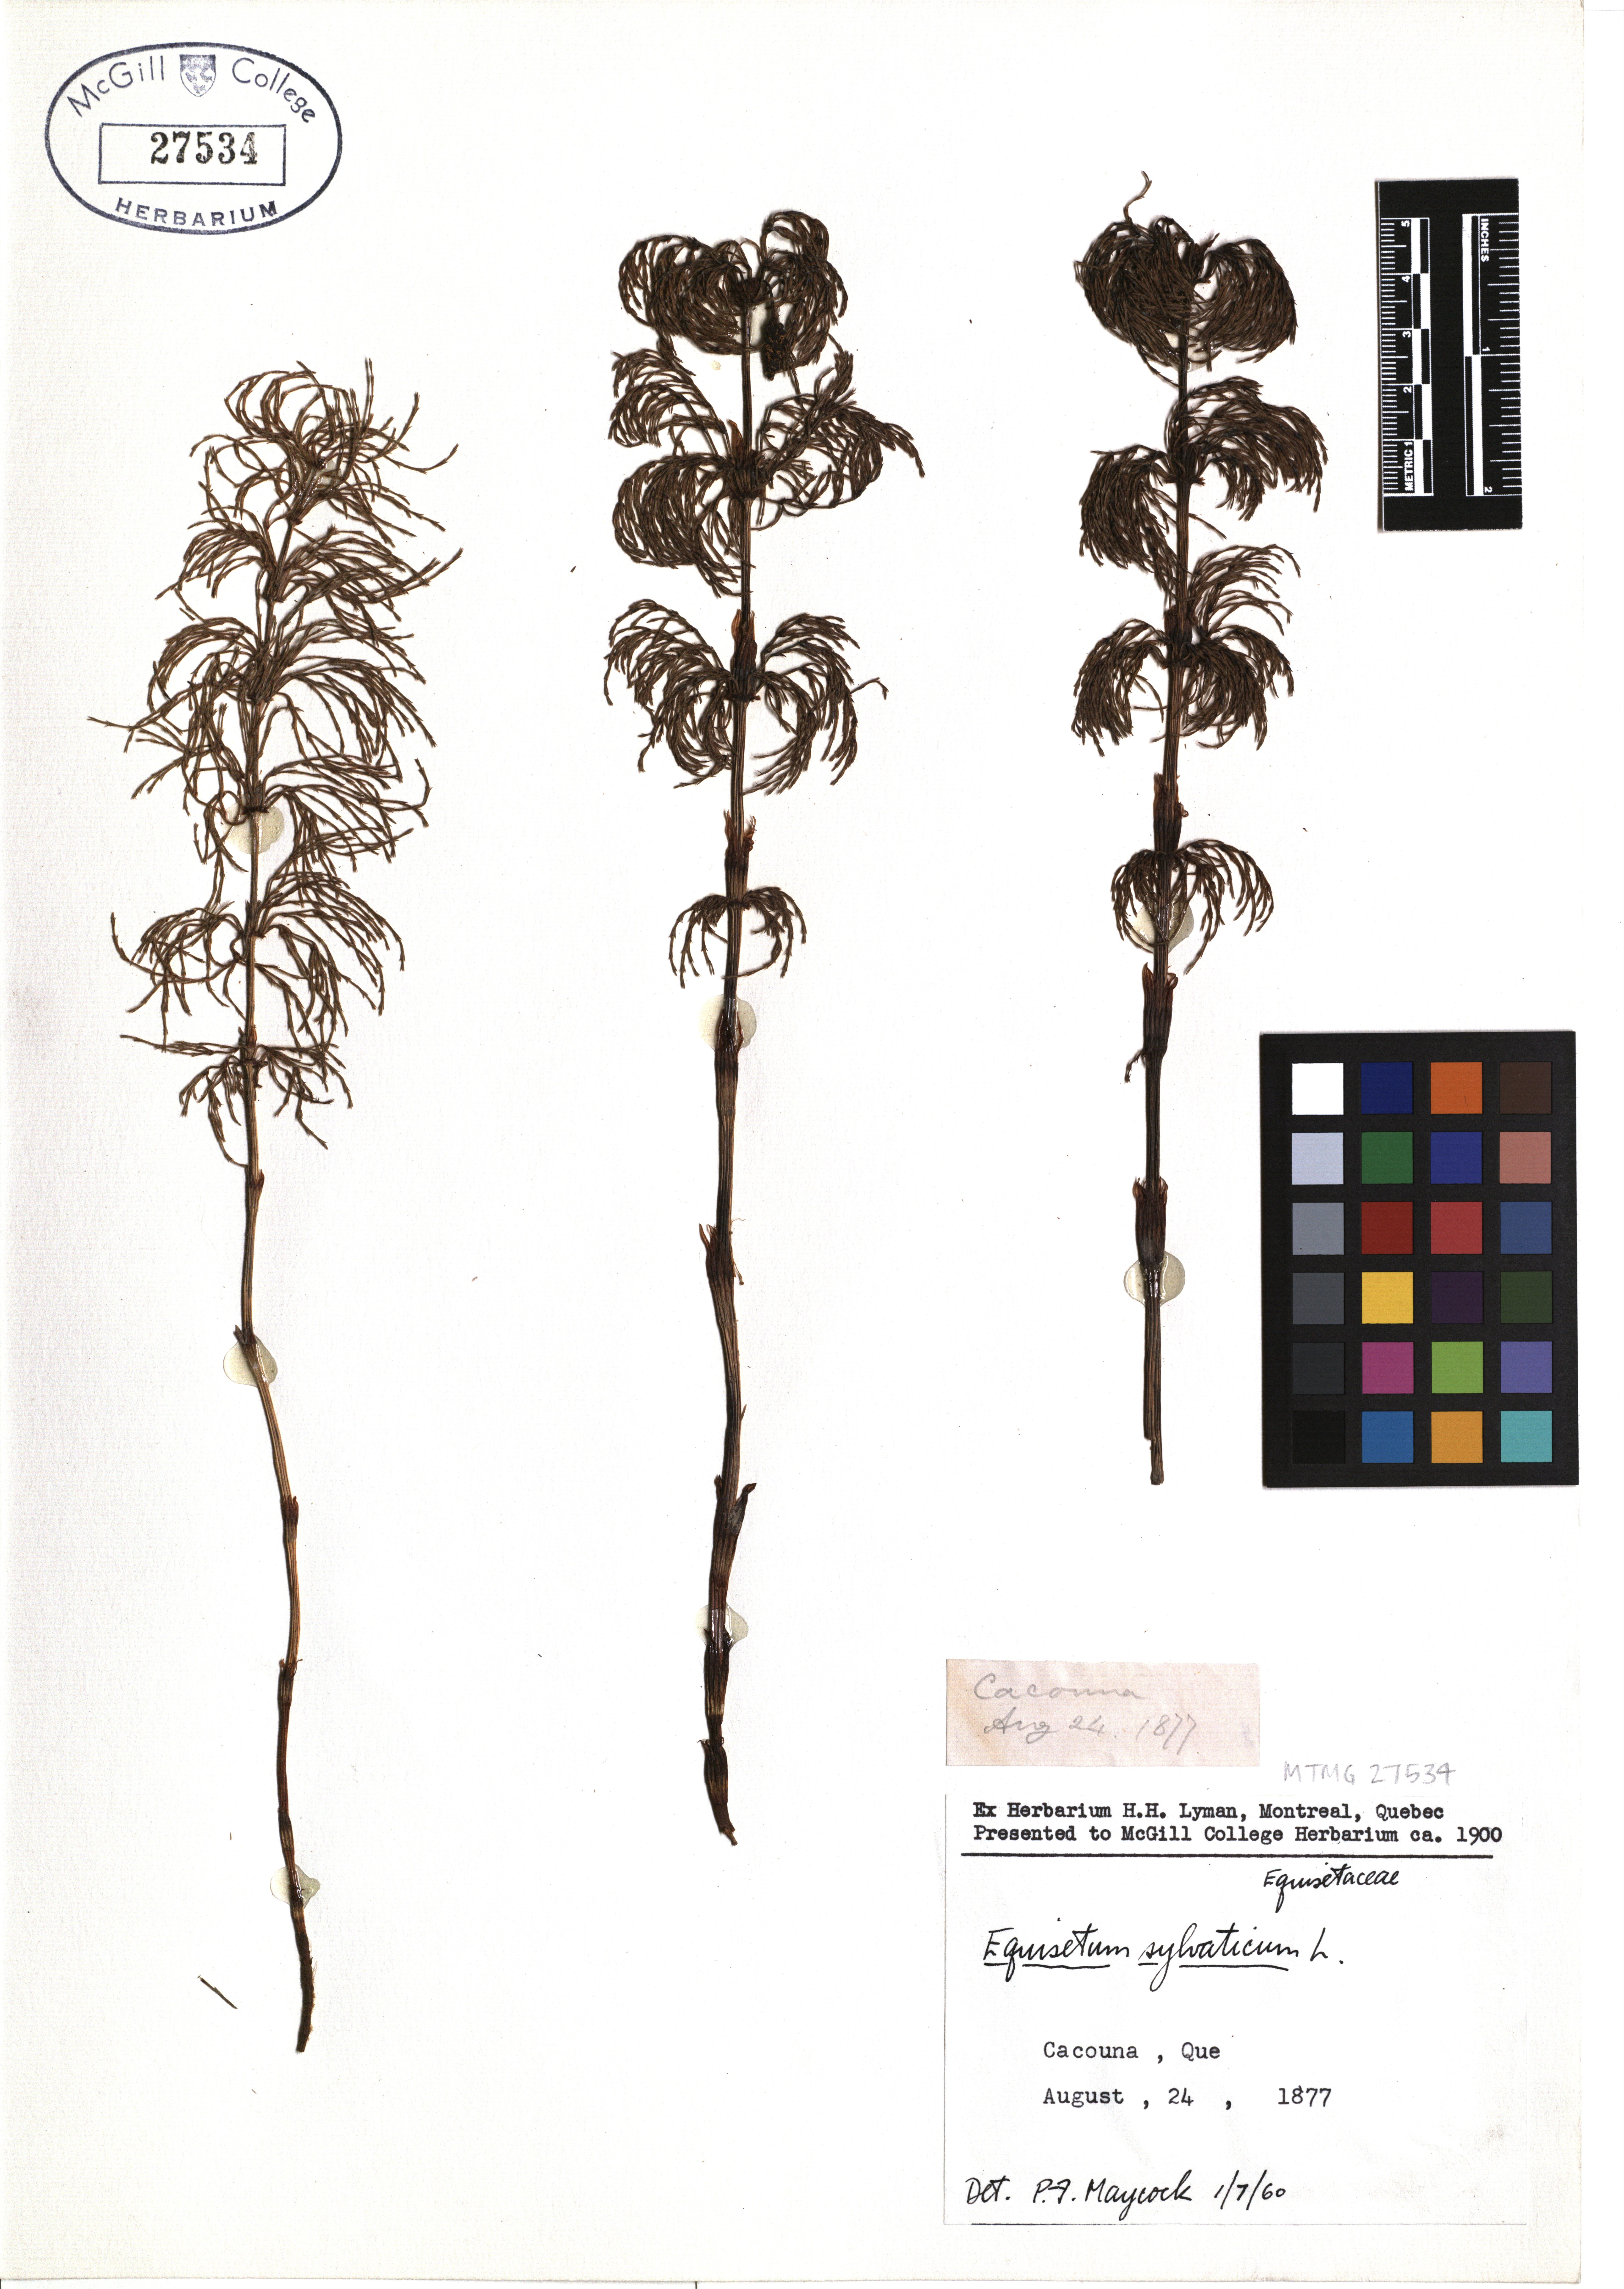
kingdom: Plantae
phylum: Tracheophyta
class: Polypodiopsida
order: Equisetales
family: Equisetaceae
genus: Equisetum
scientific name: Equisetum sylvaticum
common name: Wood horsetail
